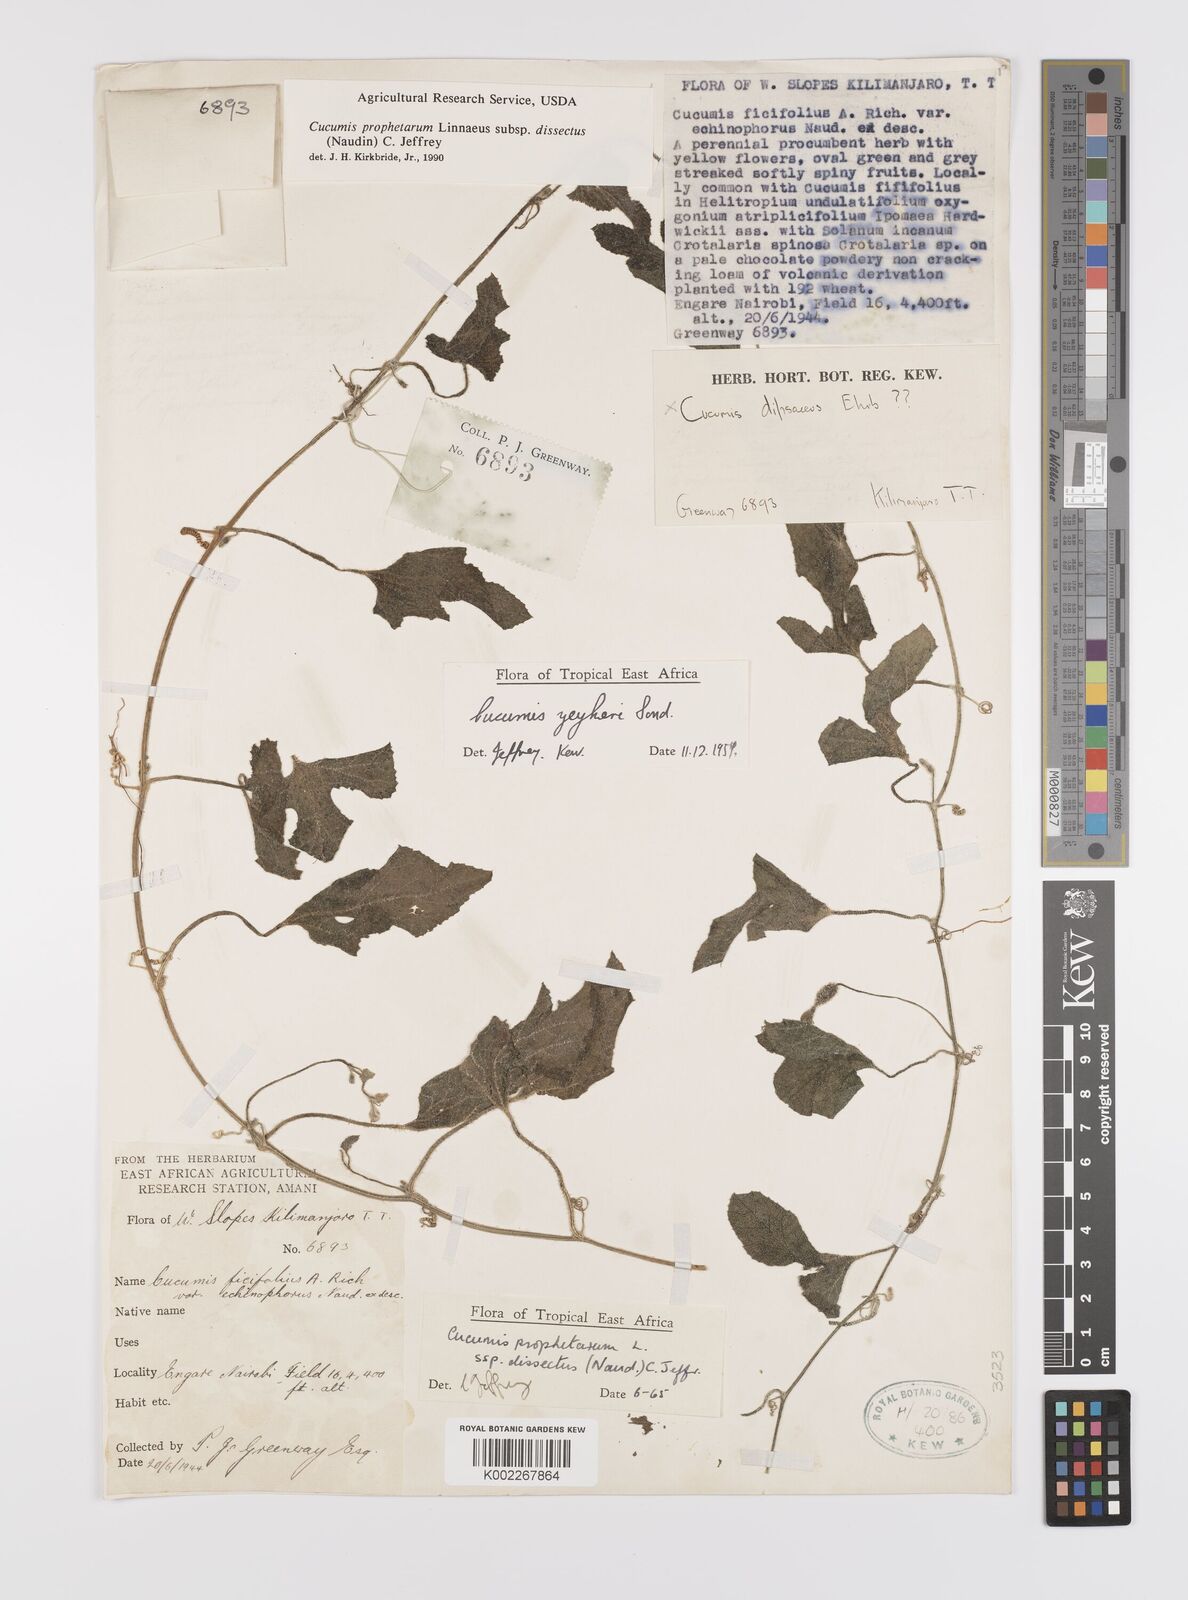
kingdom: Plantae
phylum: Tracheophyta
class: Magnoliopsida
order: Cucurbitales
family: Cucurbitaceae
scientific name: Cucurbitaceae
